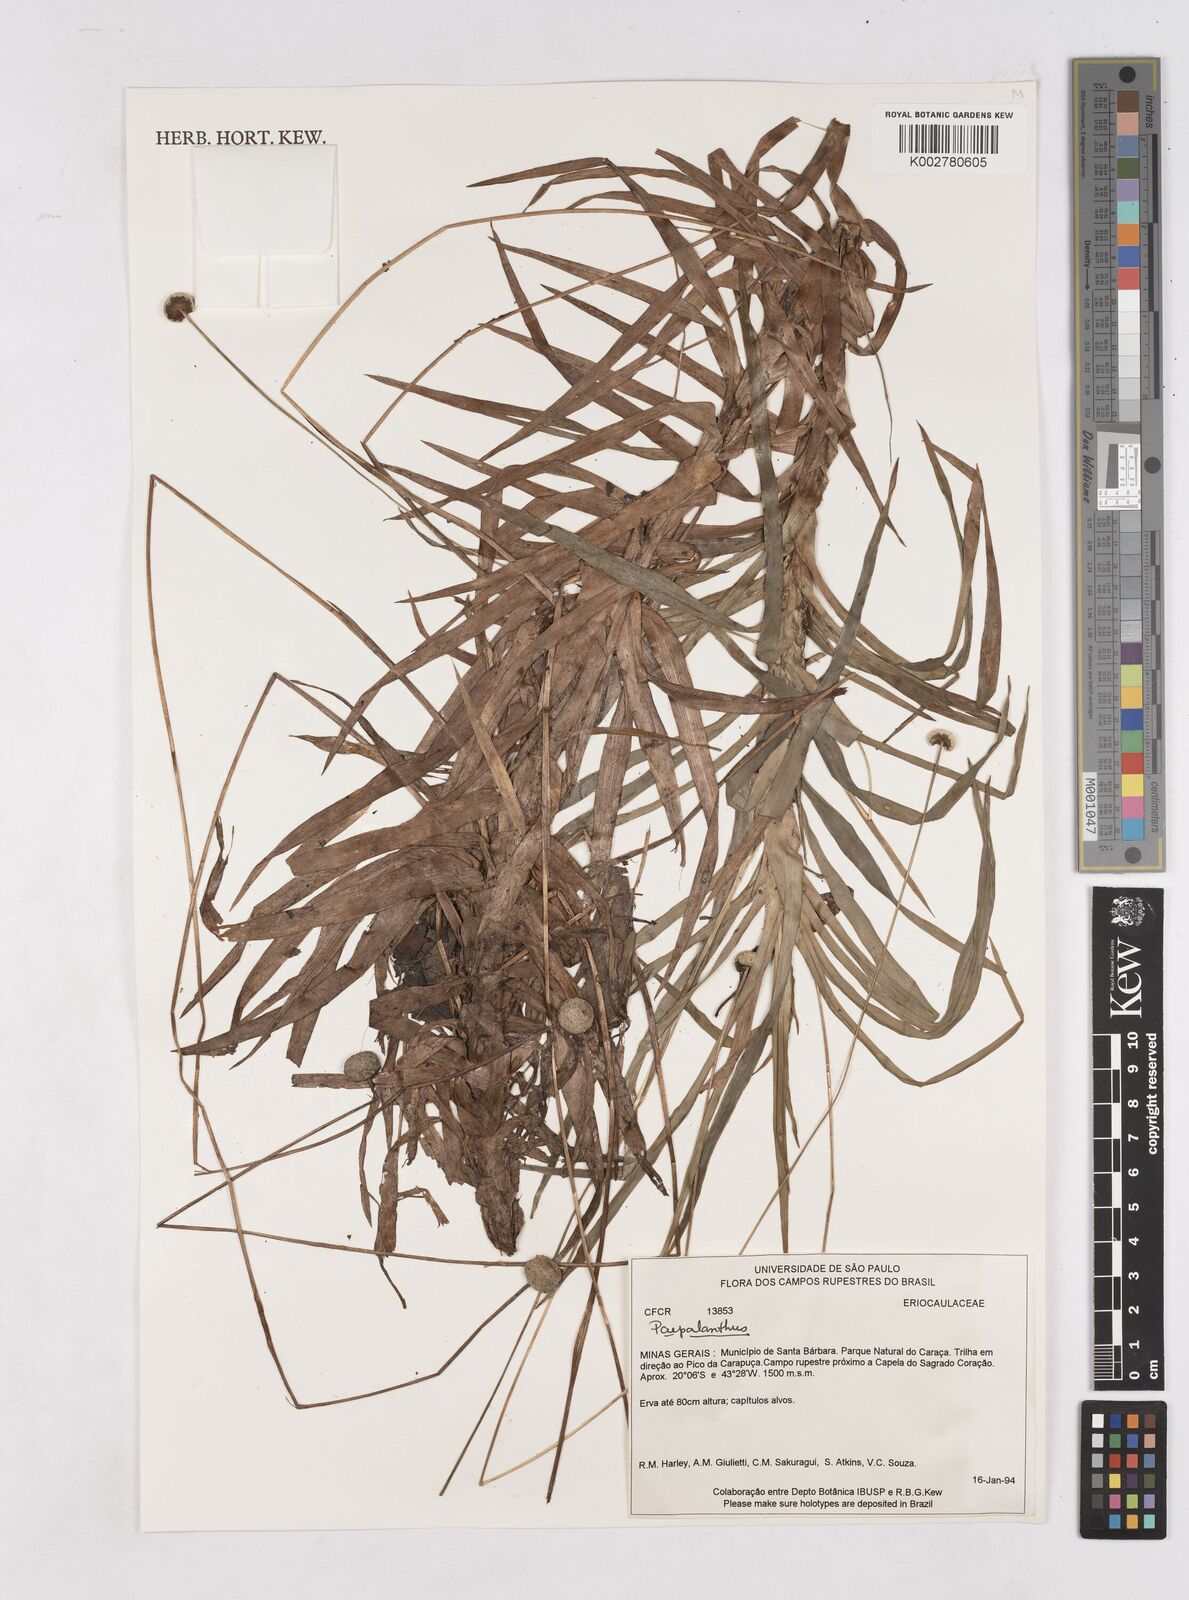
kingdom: Plantae
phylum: Tracheophyta
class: Liliopsida
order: Poales
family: Eriocaulaceae
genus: Paepalanthus
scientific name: Paepalanthus
